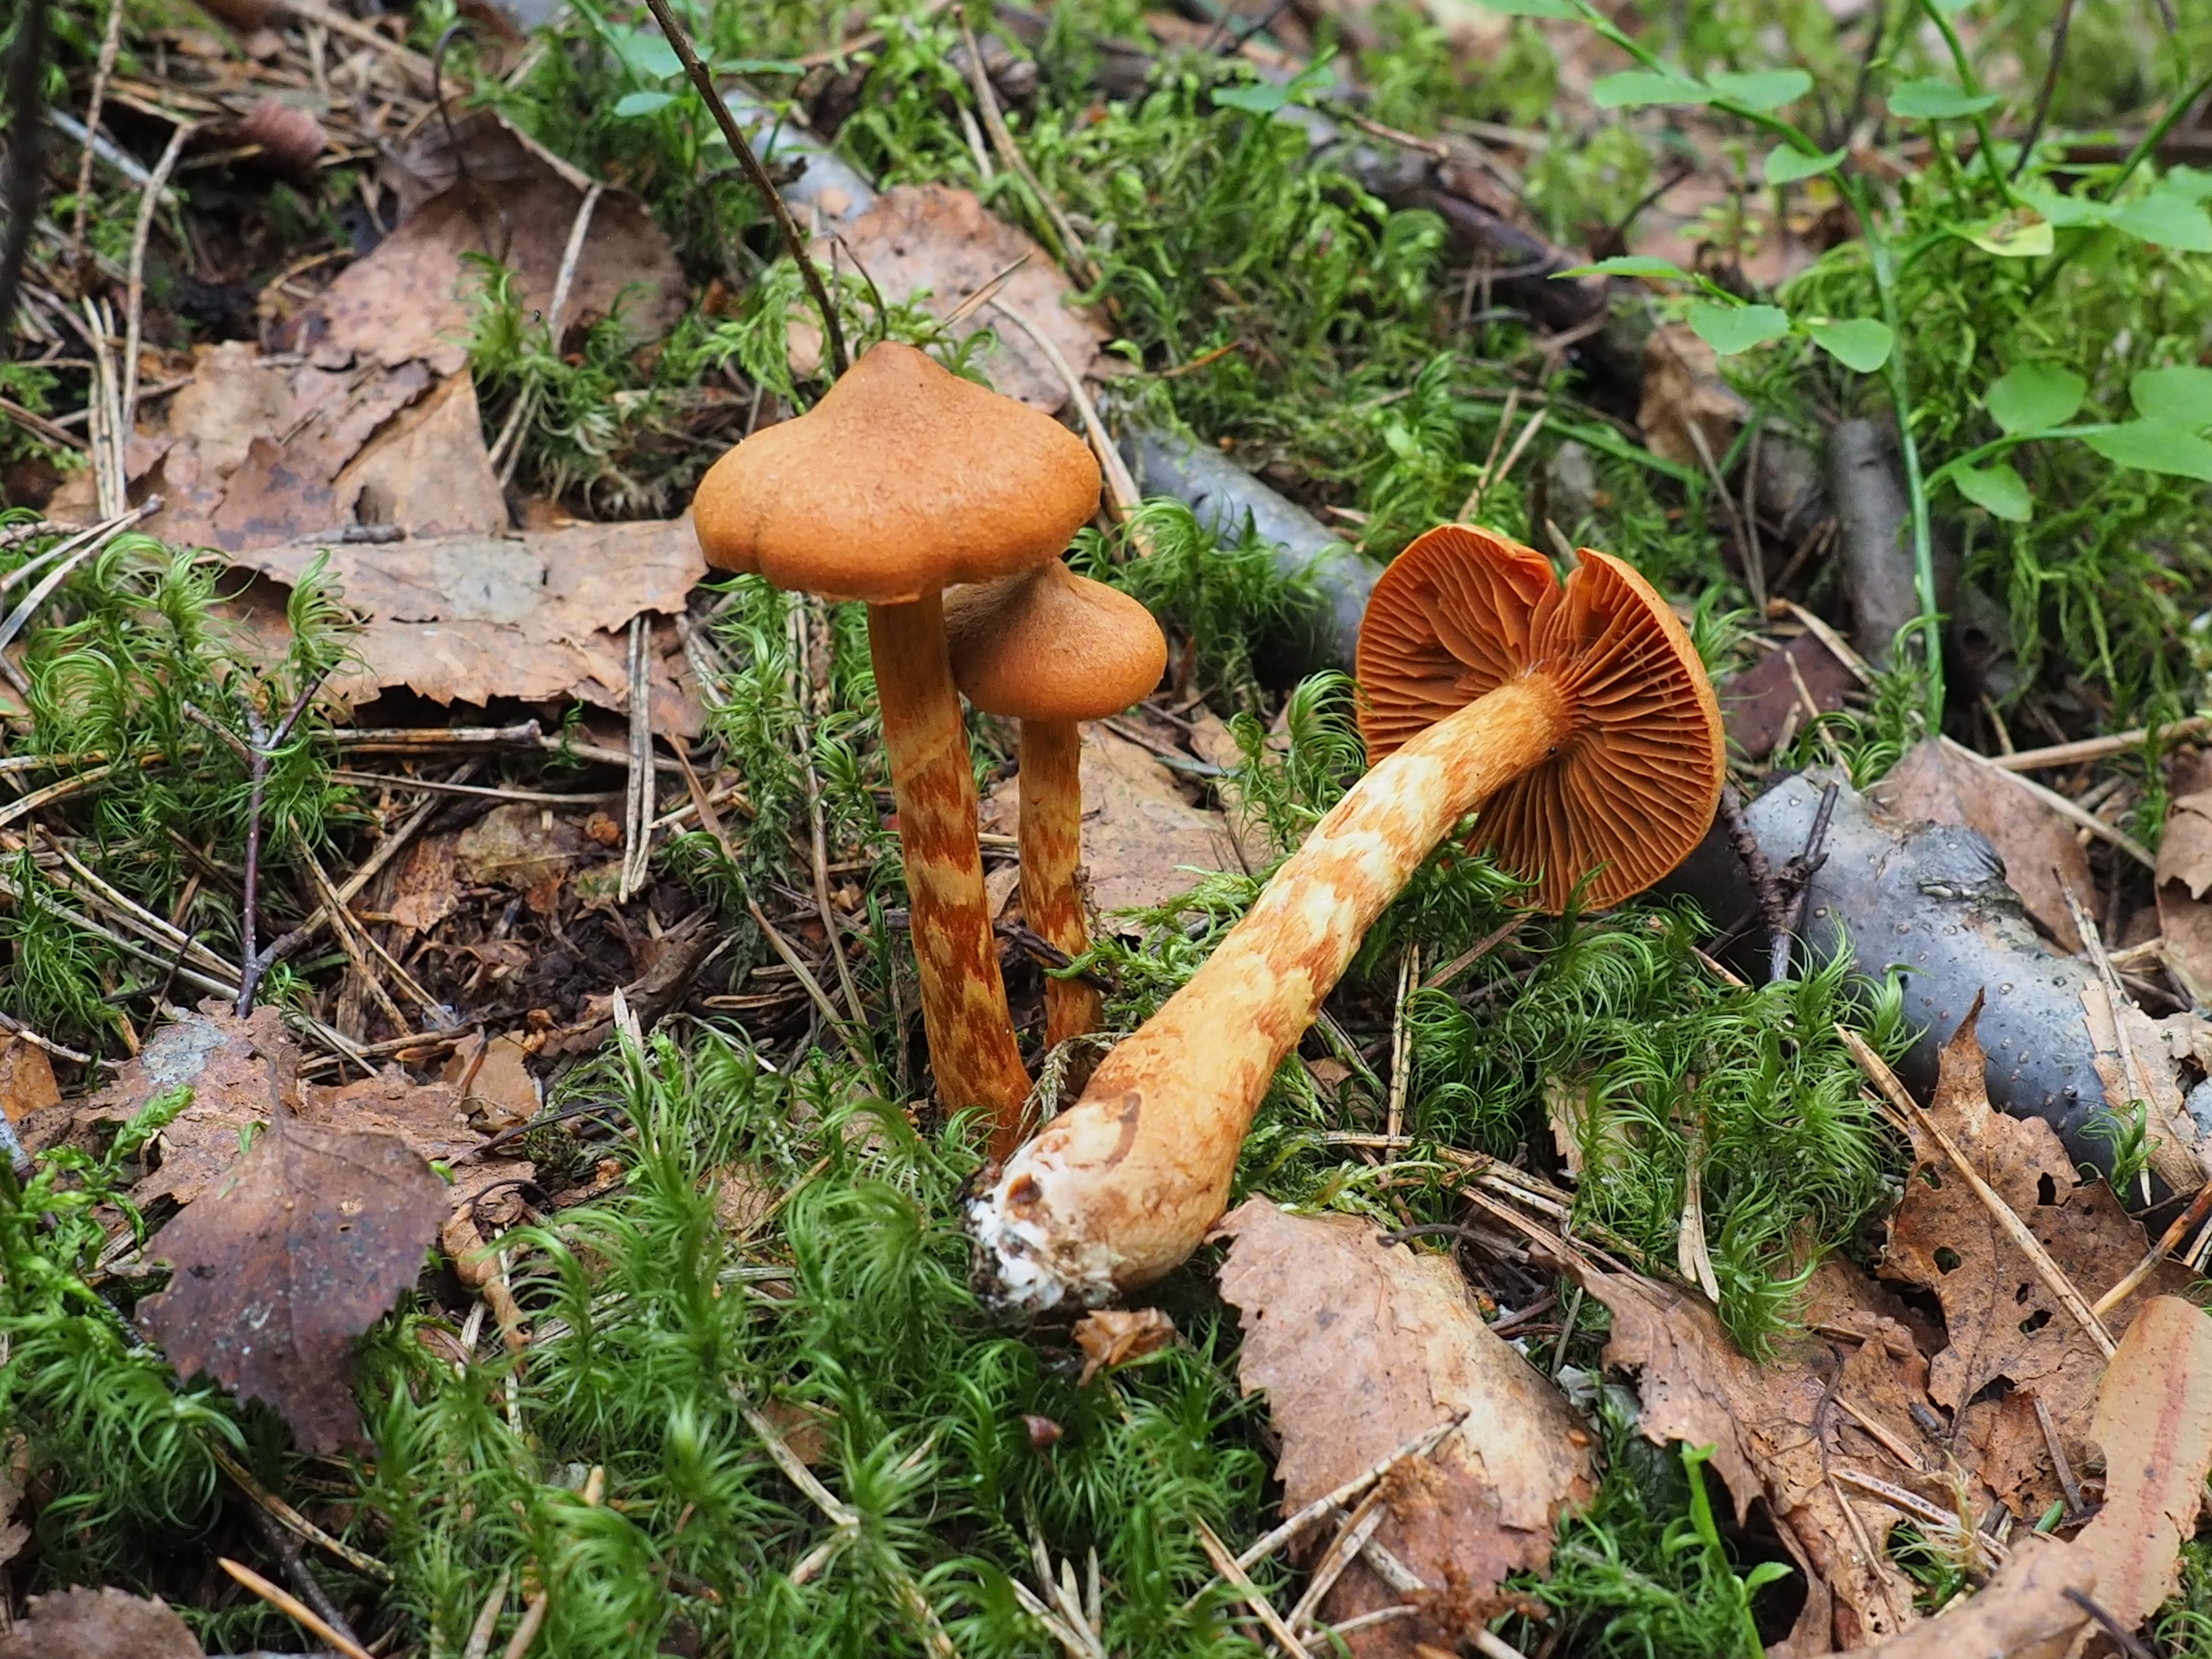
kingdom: Fungi
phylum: Basidiomycota
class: Agaricomycetes
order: Agaricales
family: Cortinariaceae
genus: Cortinarius
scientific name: Cortinarius rubellus
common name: Deadly webcap
